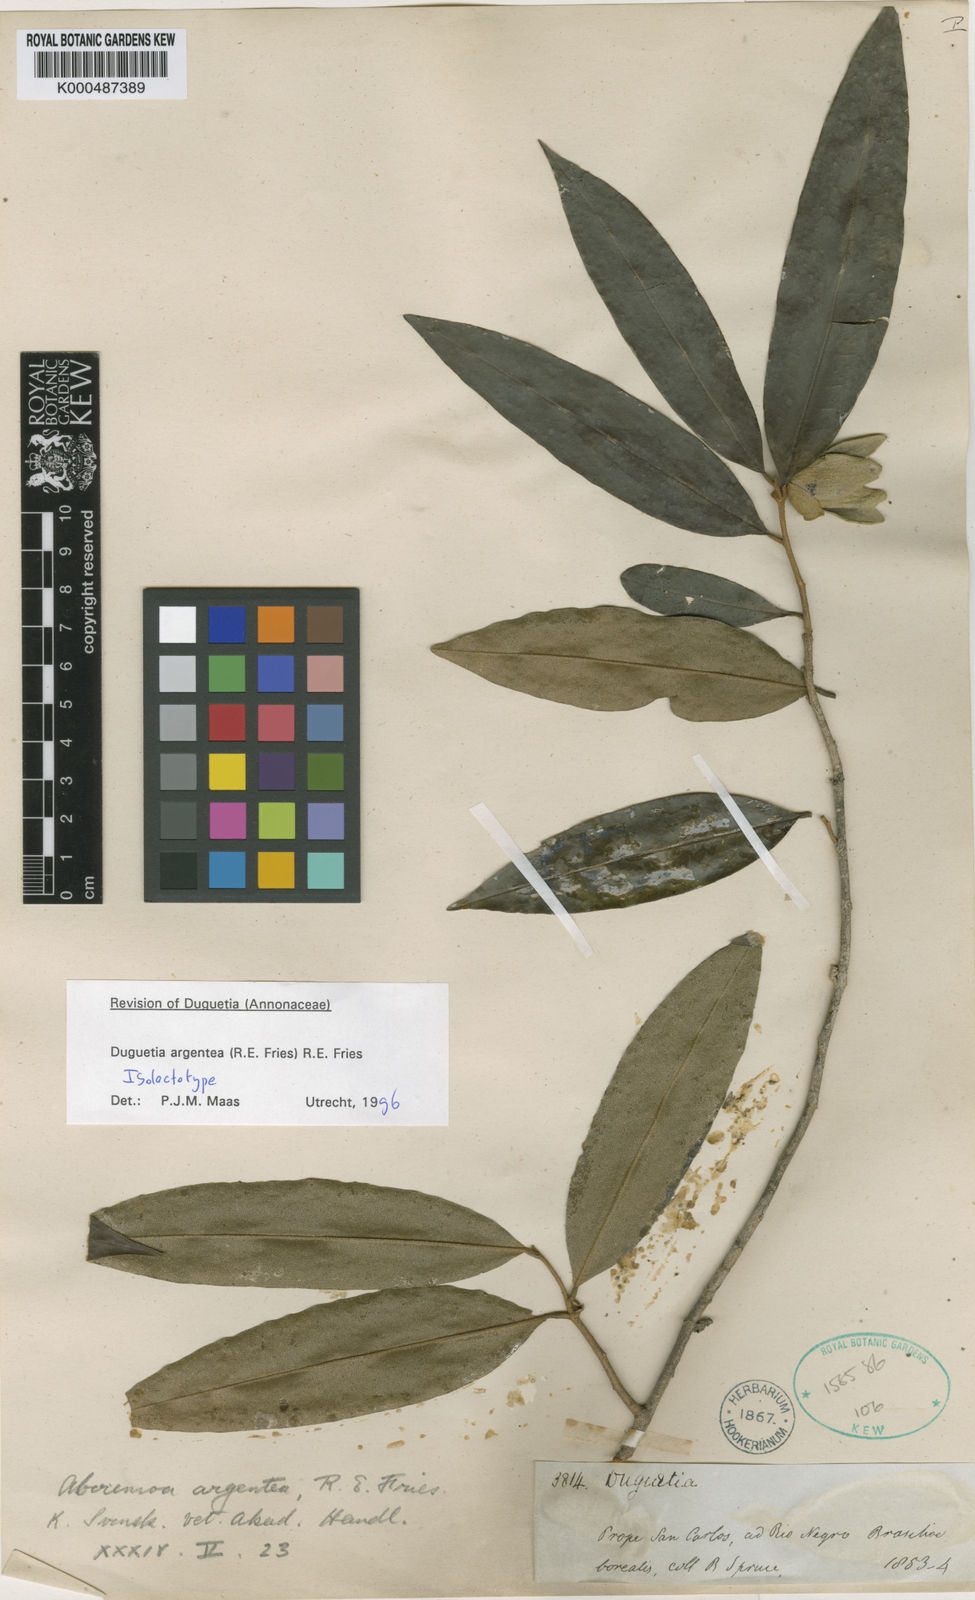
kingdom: Plantae
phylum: Tracheophyta
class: Magnoliopsida
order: Magnoliales
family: Annonaceae
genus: Duguetia
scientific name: Duguetia argentea
